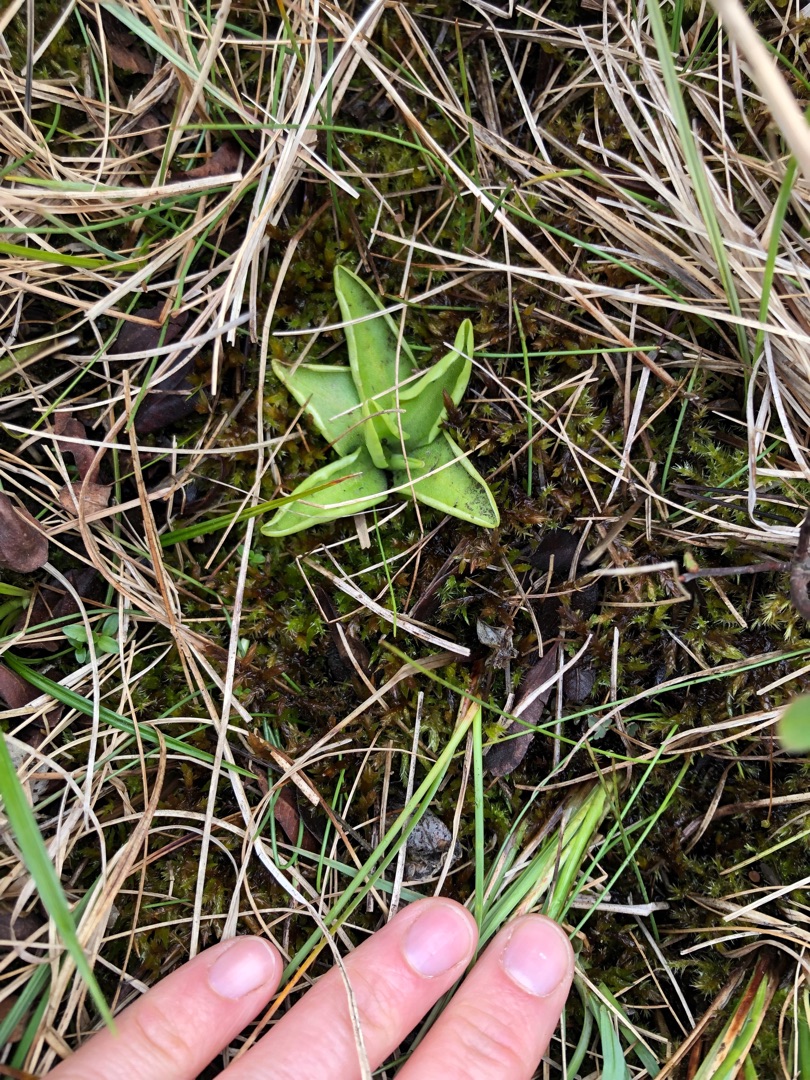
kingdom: Plantae
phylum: Tracheophyta
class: Magnoliopsida
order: Lamiales
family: Lentibulariaceae
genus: Pinguicula
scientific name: Pinguicula vulgaris
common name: Vibefedt
